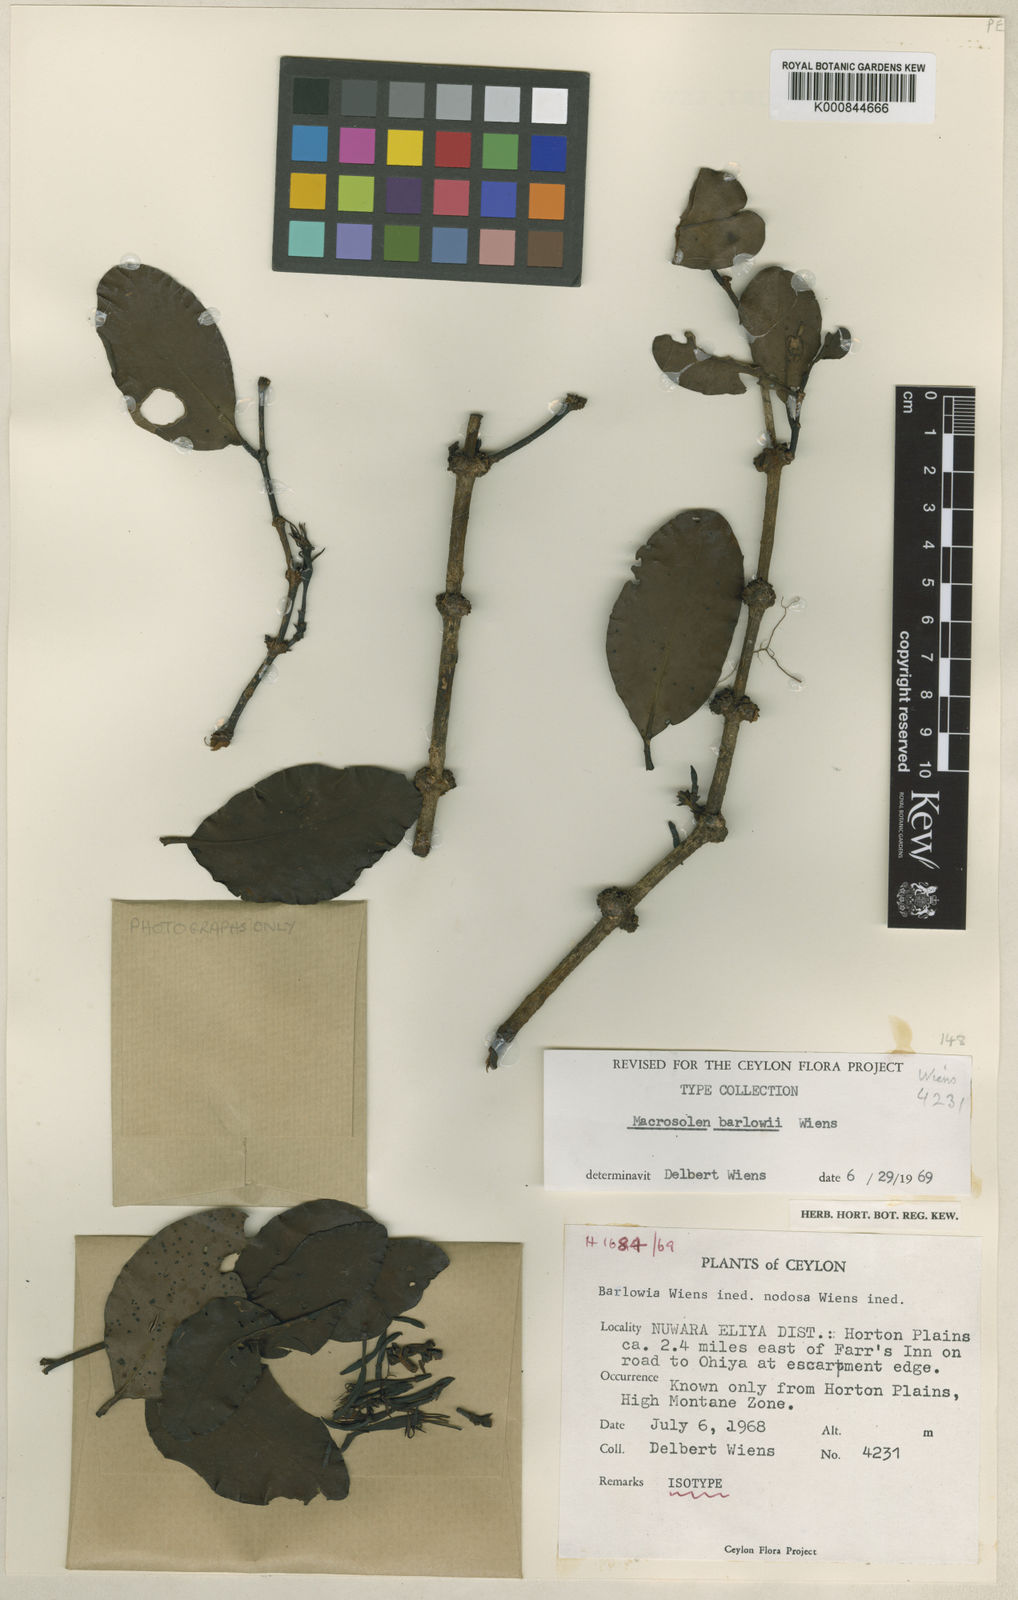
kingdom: Plantae
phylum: Tracheophyta
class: Magnoliopsida
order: Santalales
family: Loranthaceae
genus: Macrosolen
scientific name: Macrosolen barlowii
